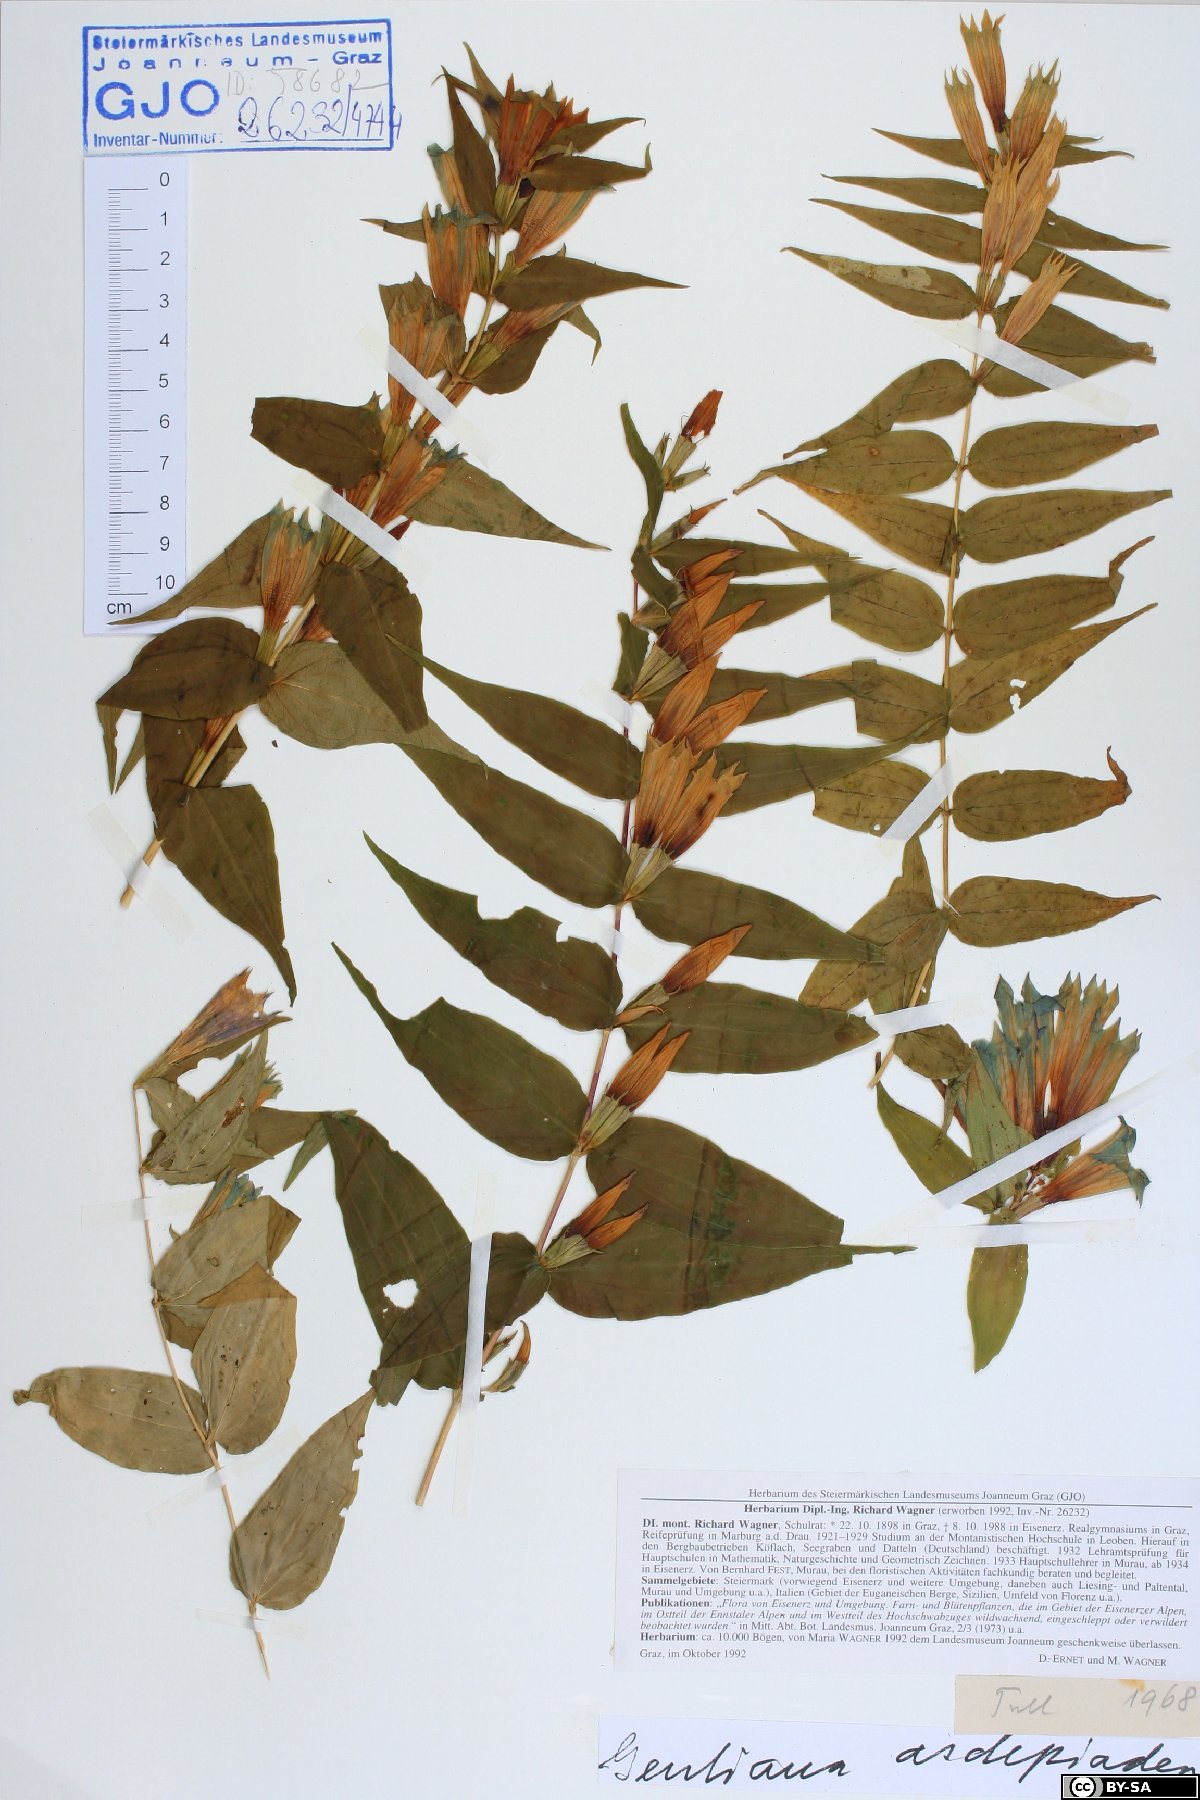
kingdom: Plantae
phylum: Tracheophyta
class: Magnoliopsida
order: Gentianales
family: Gentianaceae
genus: Gentiana
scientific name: Gentiana asclepiadea
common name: Willow gentian
